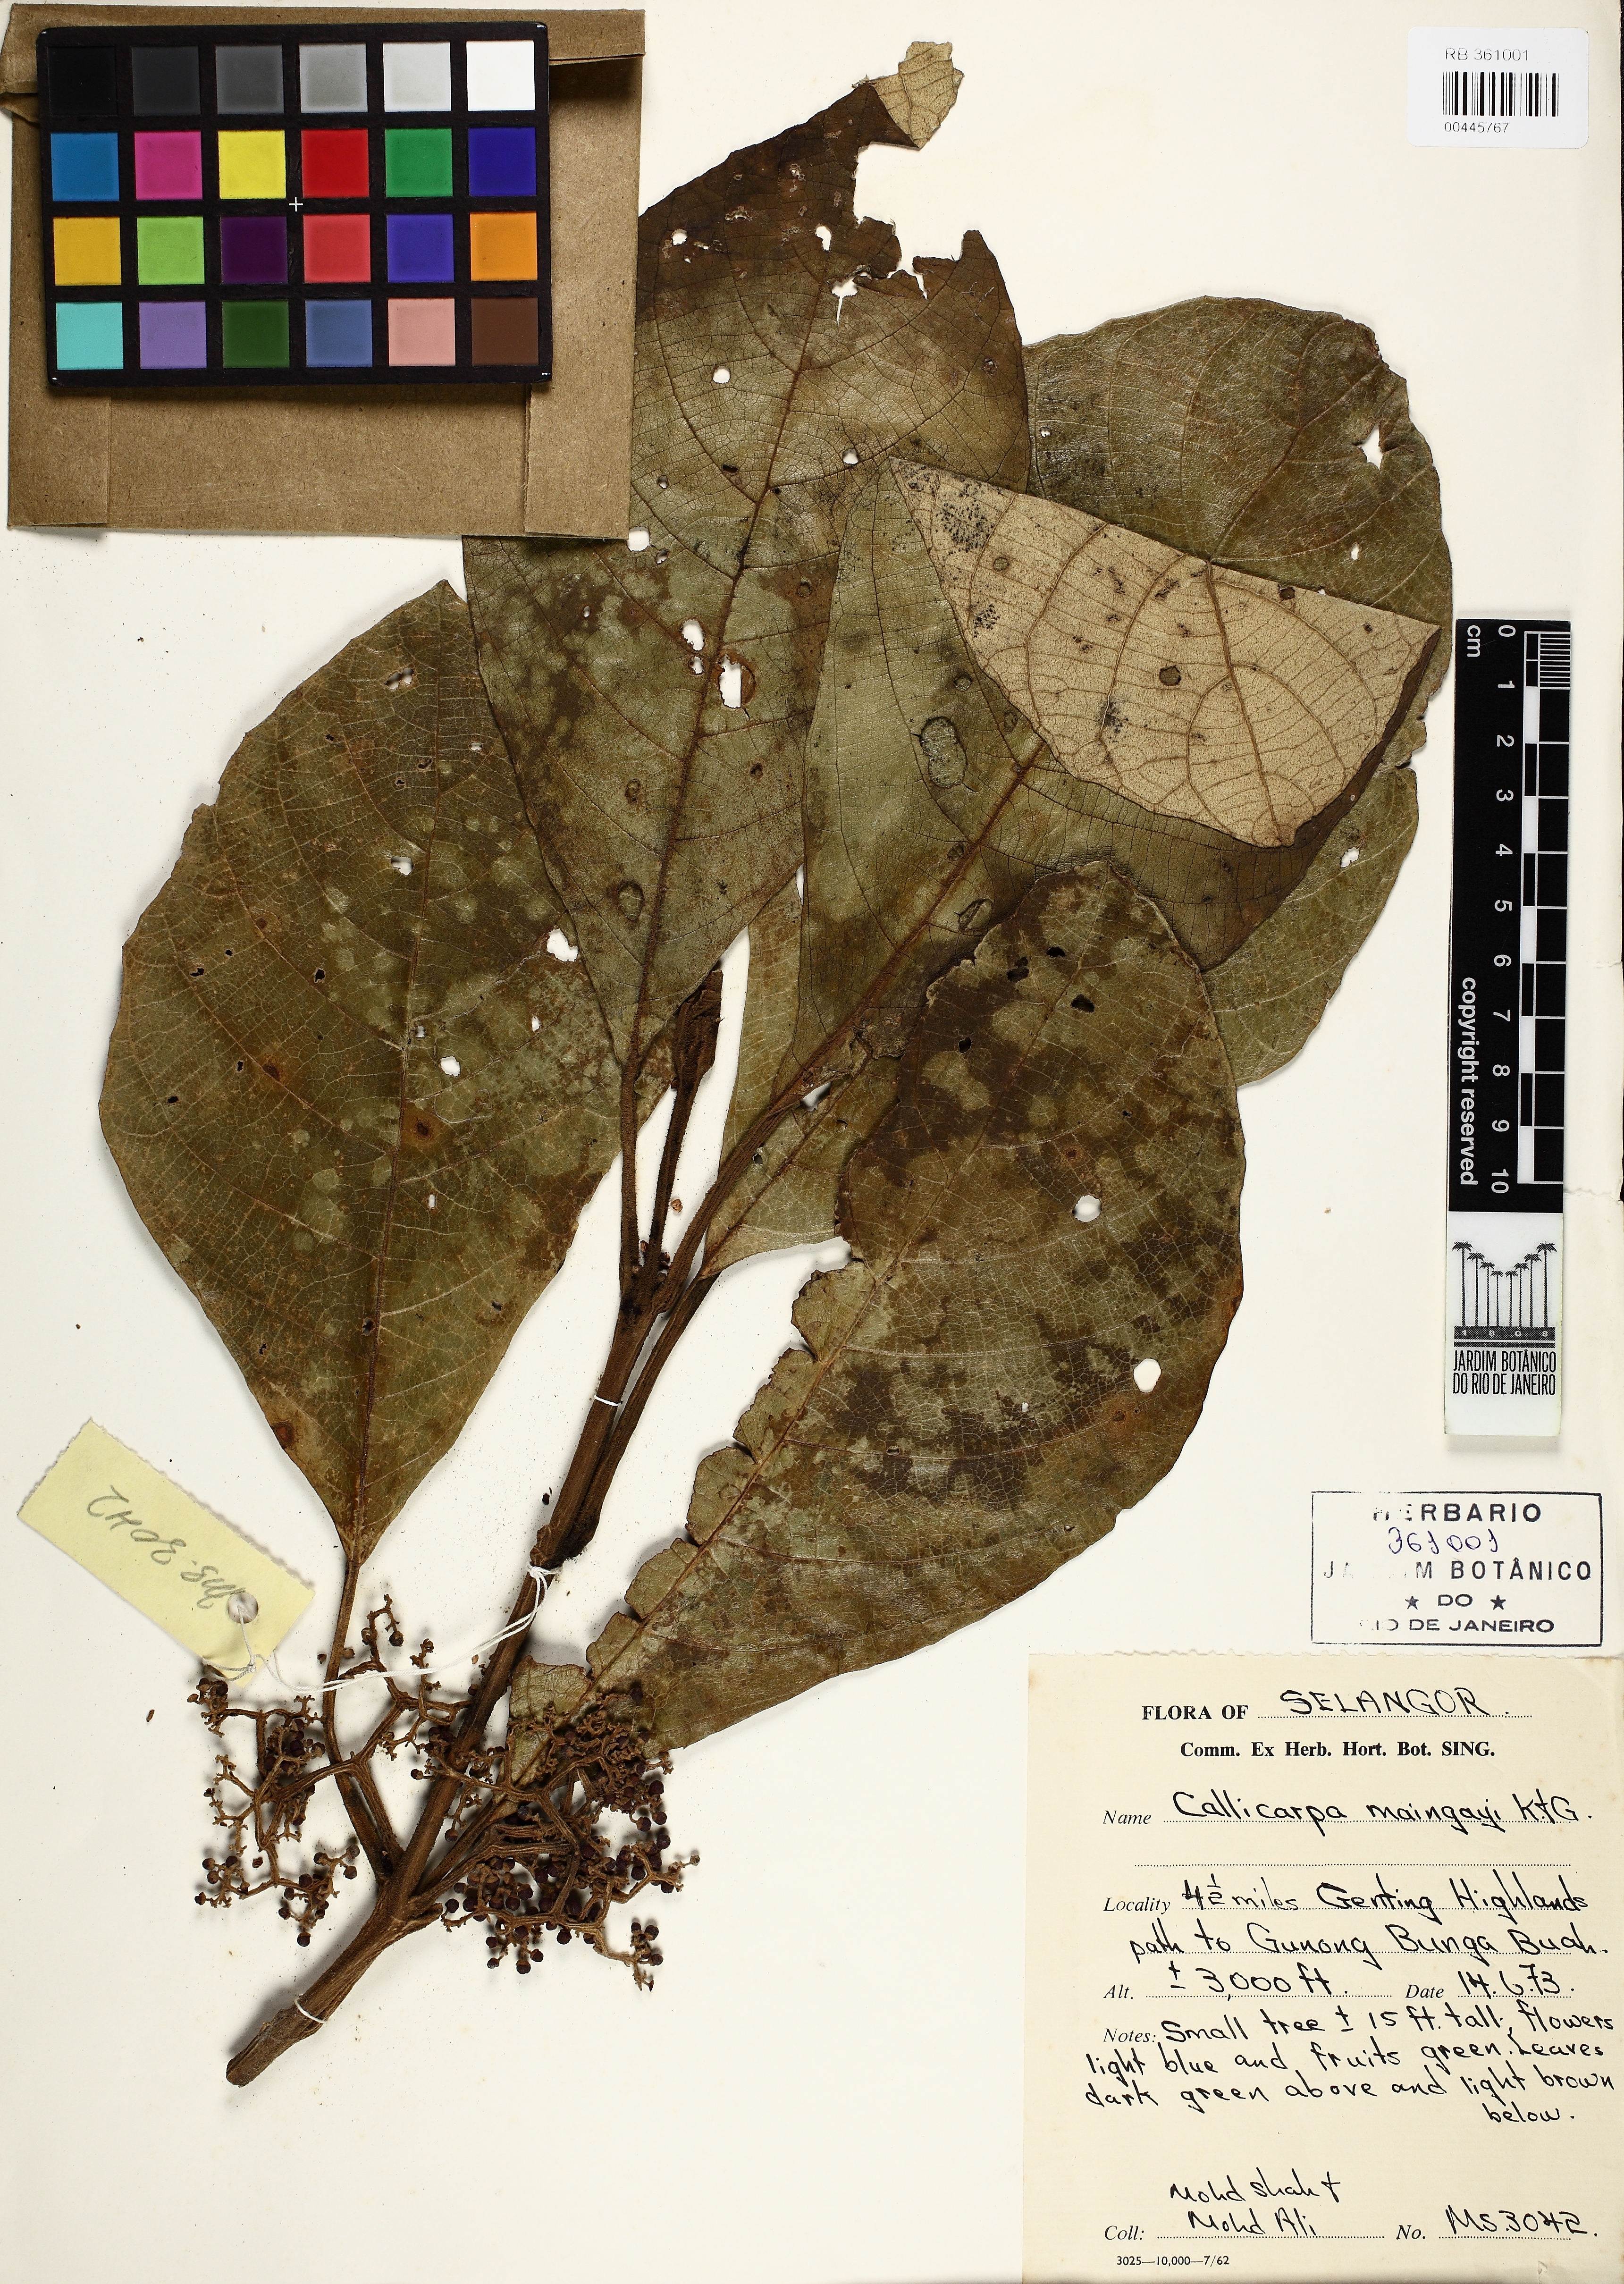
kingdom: Plantae
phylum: Tracheophyta
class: Magnoliopsida
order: Lamiales
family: Lamiaceae
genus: Callicarpa
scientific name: Callicarpa maingayi
